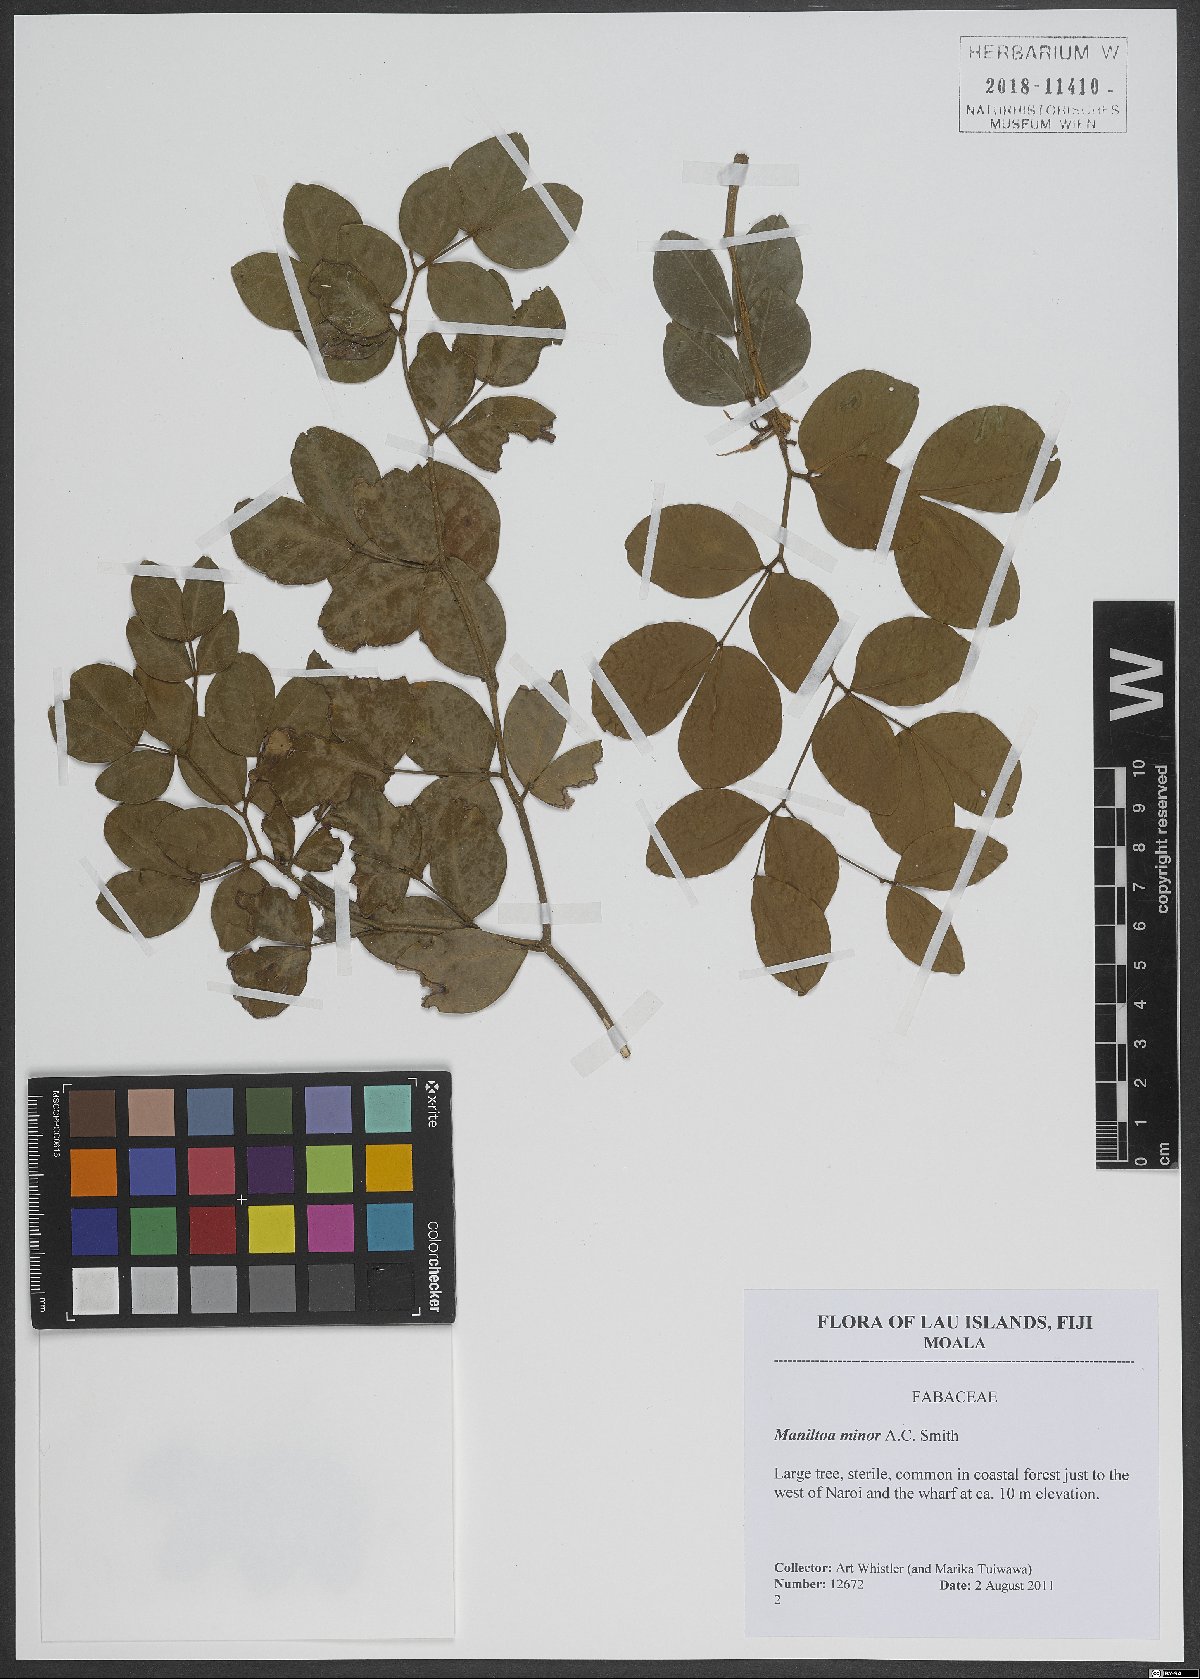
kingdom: Plantae
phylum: Tracheophyta
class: Magnoliopsida
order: Fabales
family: Fabaceae
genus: Cynometra
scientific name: Cynometra minor
